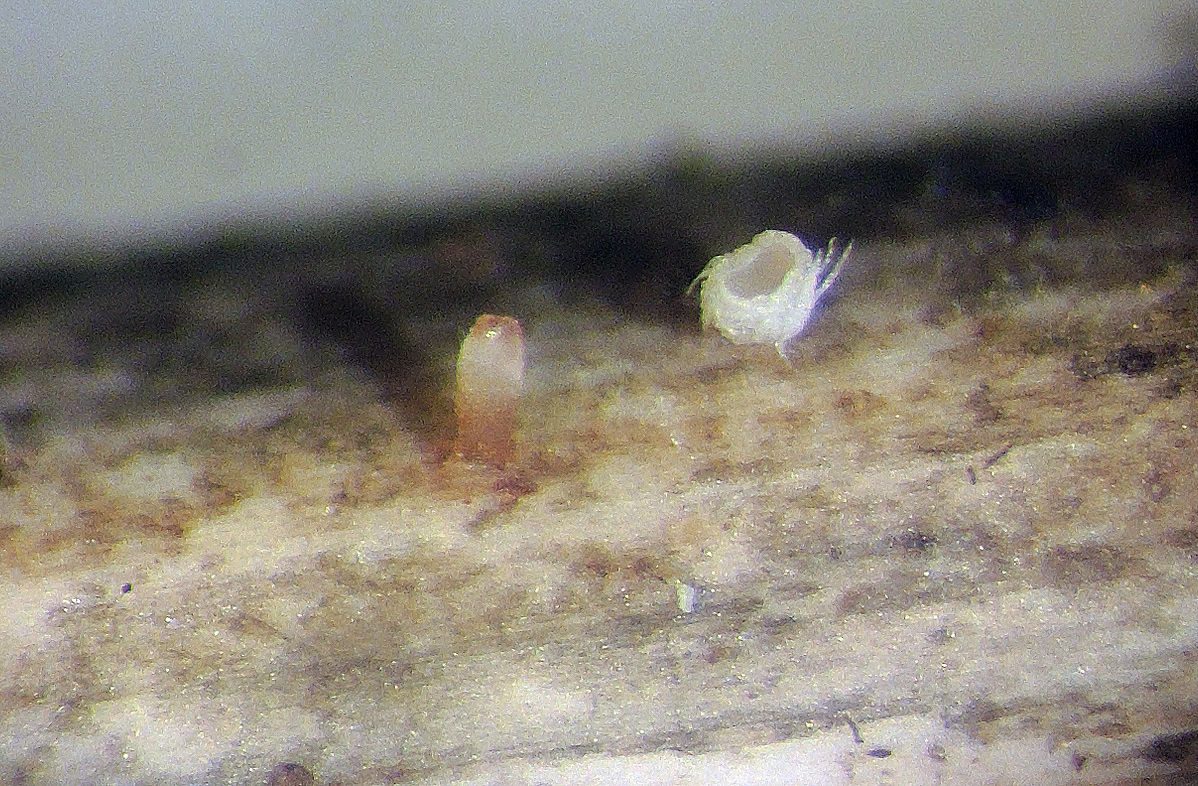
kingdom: Fungi
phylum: Ascomycota
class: Leotiomycetes
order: Helotiales
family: Hyaloscyphaceae
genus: Urceolella
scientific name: Urceolella crispula
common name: tangenthåret kugleskive
